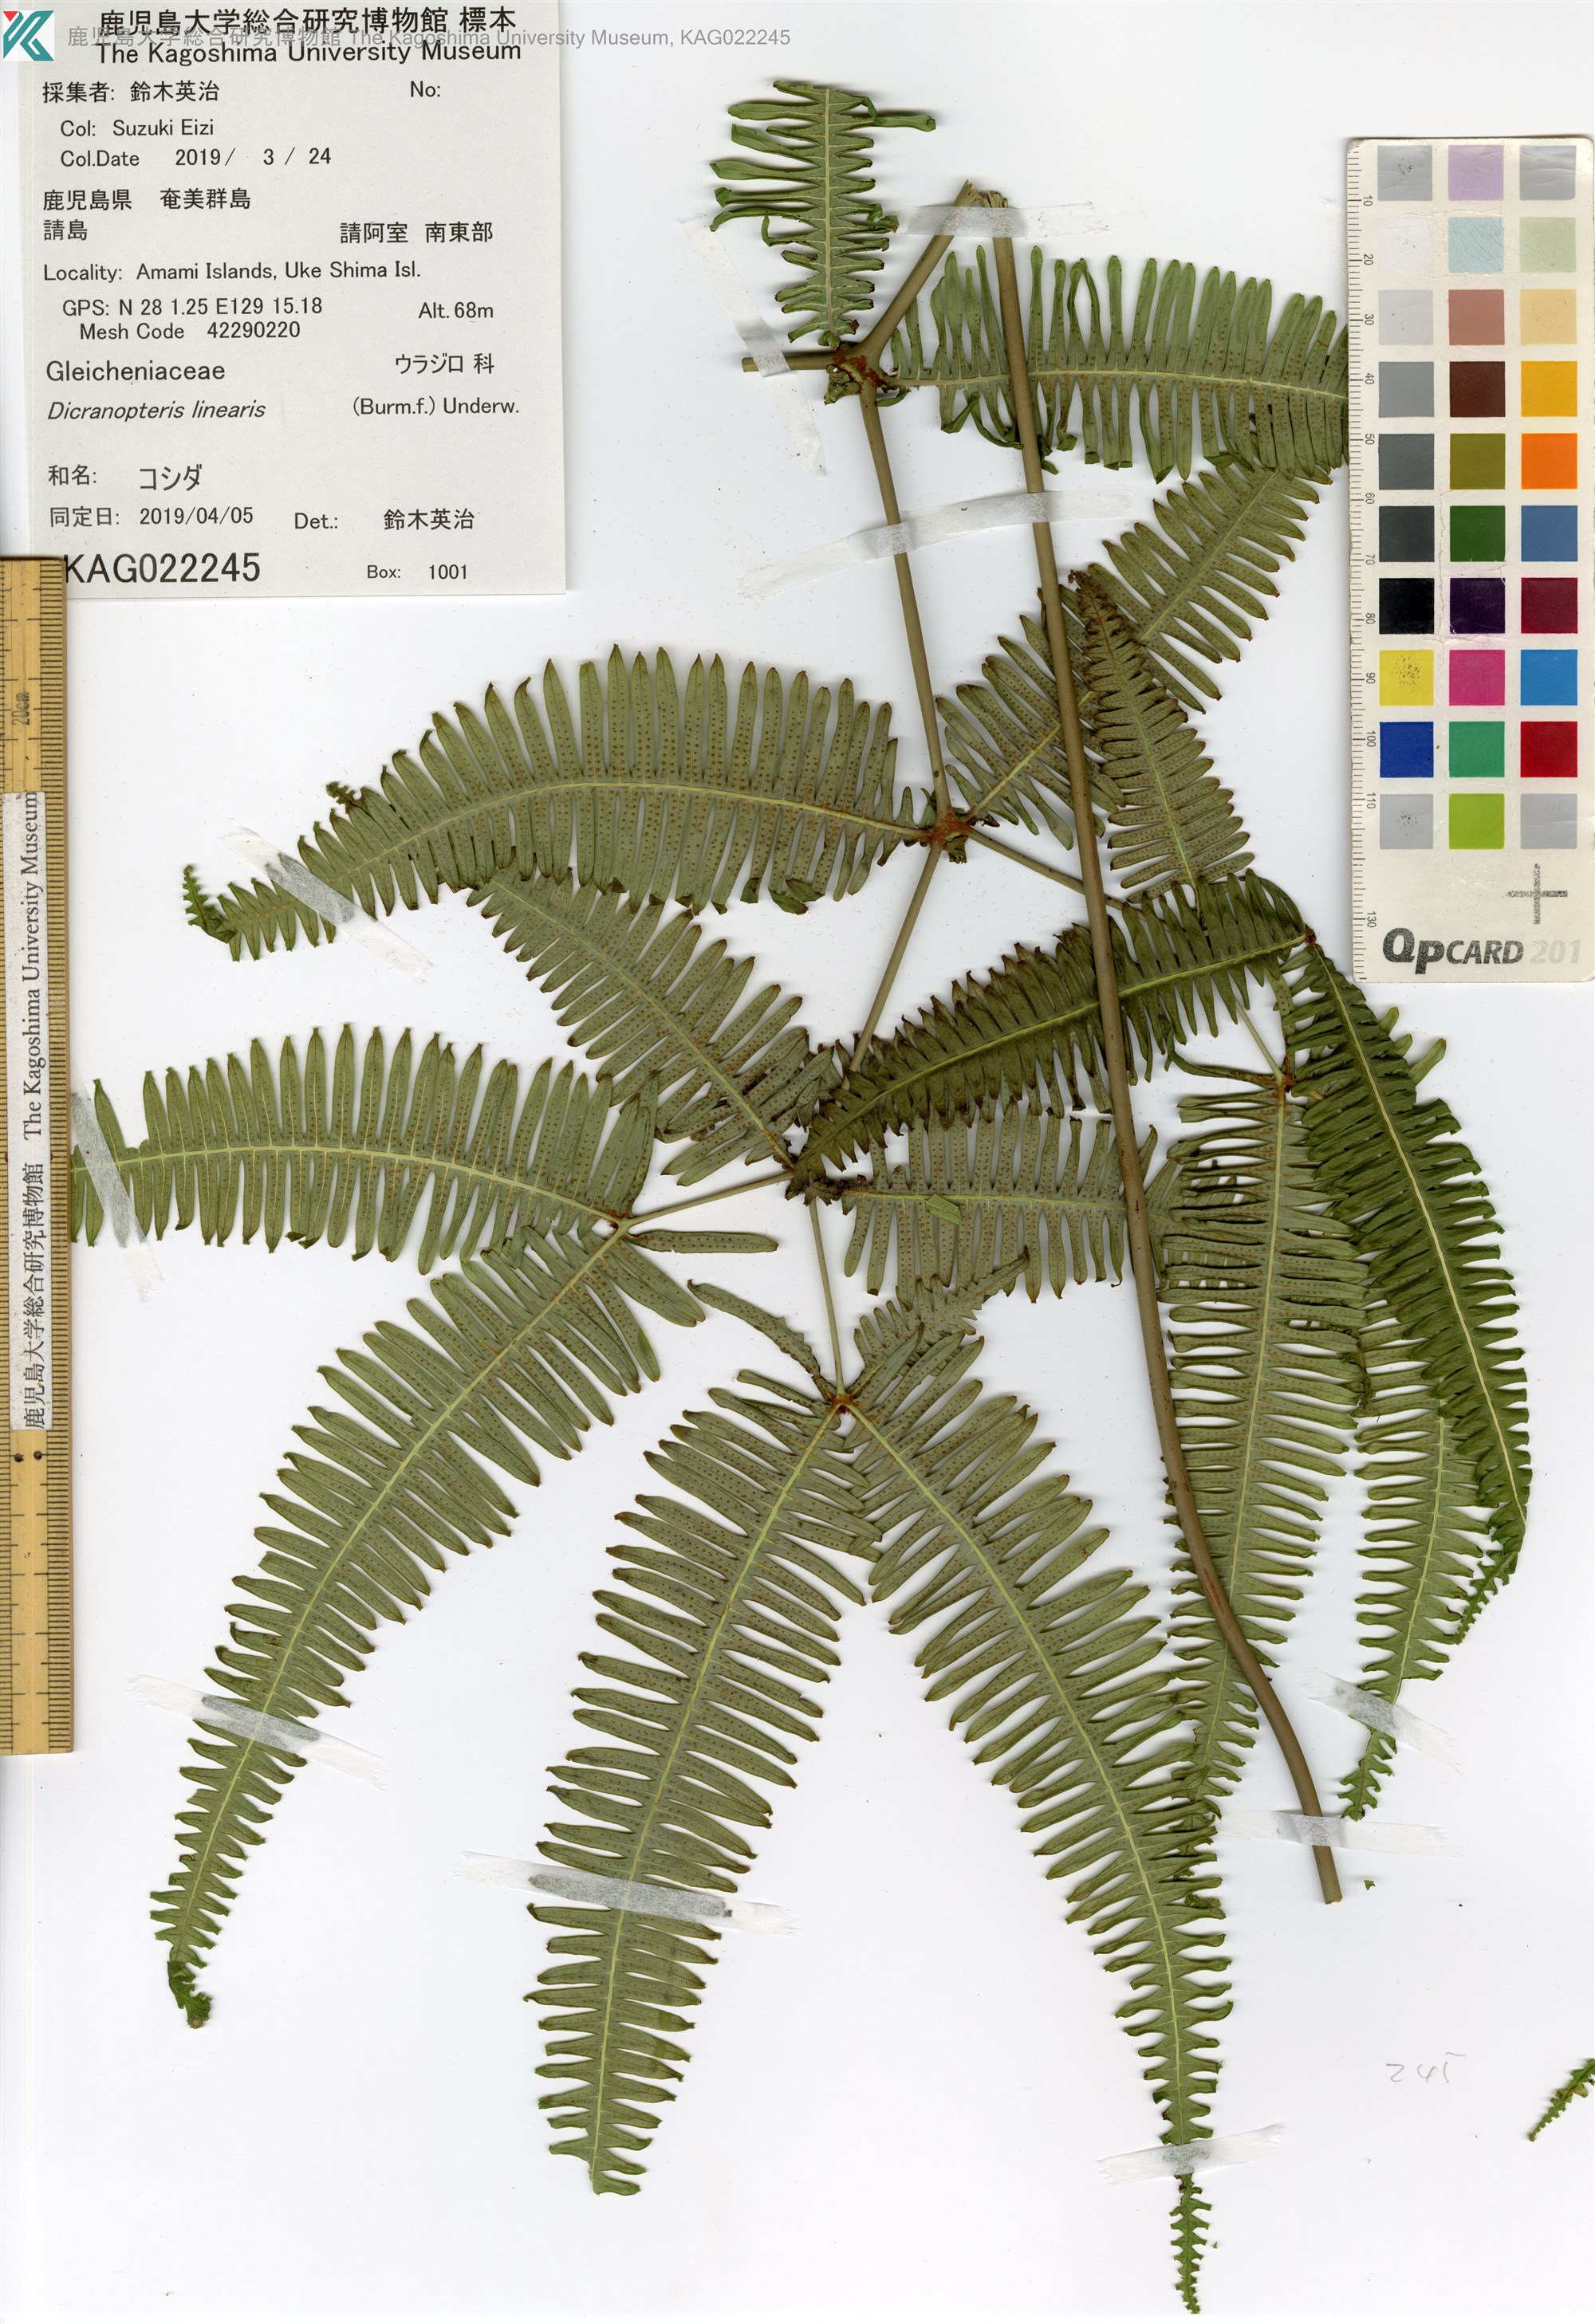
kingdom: Plantae
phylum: Tracheophyta
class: Polypodiopsida
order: Gleicheniales
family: Gleicheniaceae
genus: Dicranopteris
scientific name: Dicranopteris pedata
